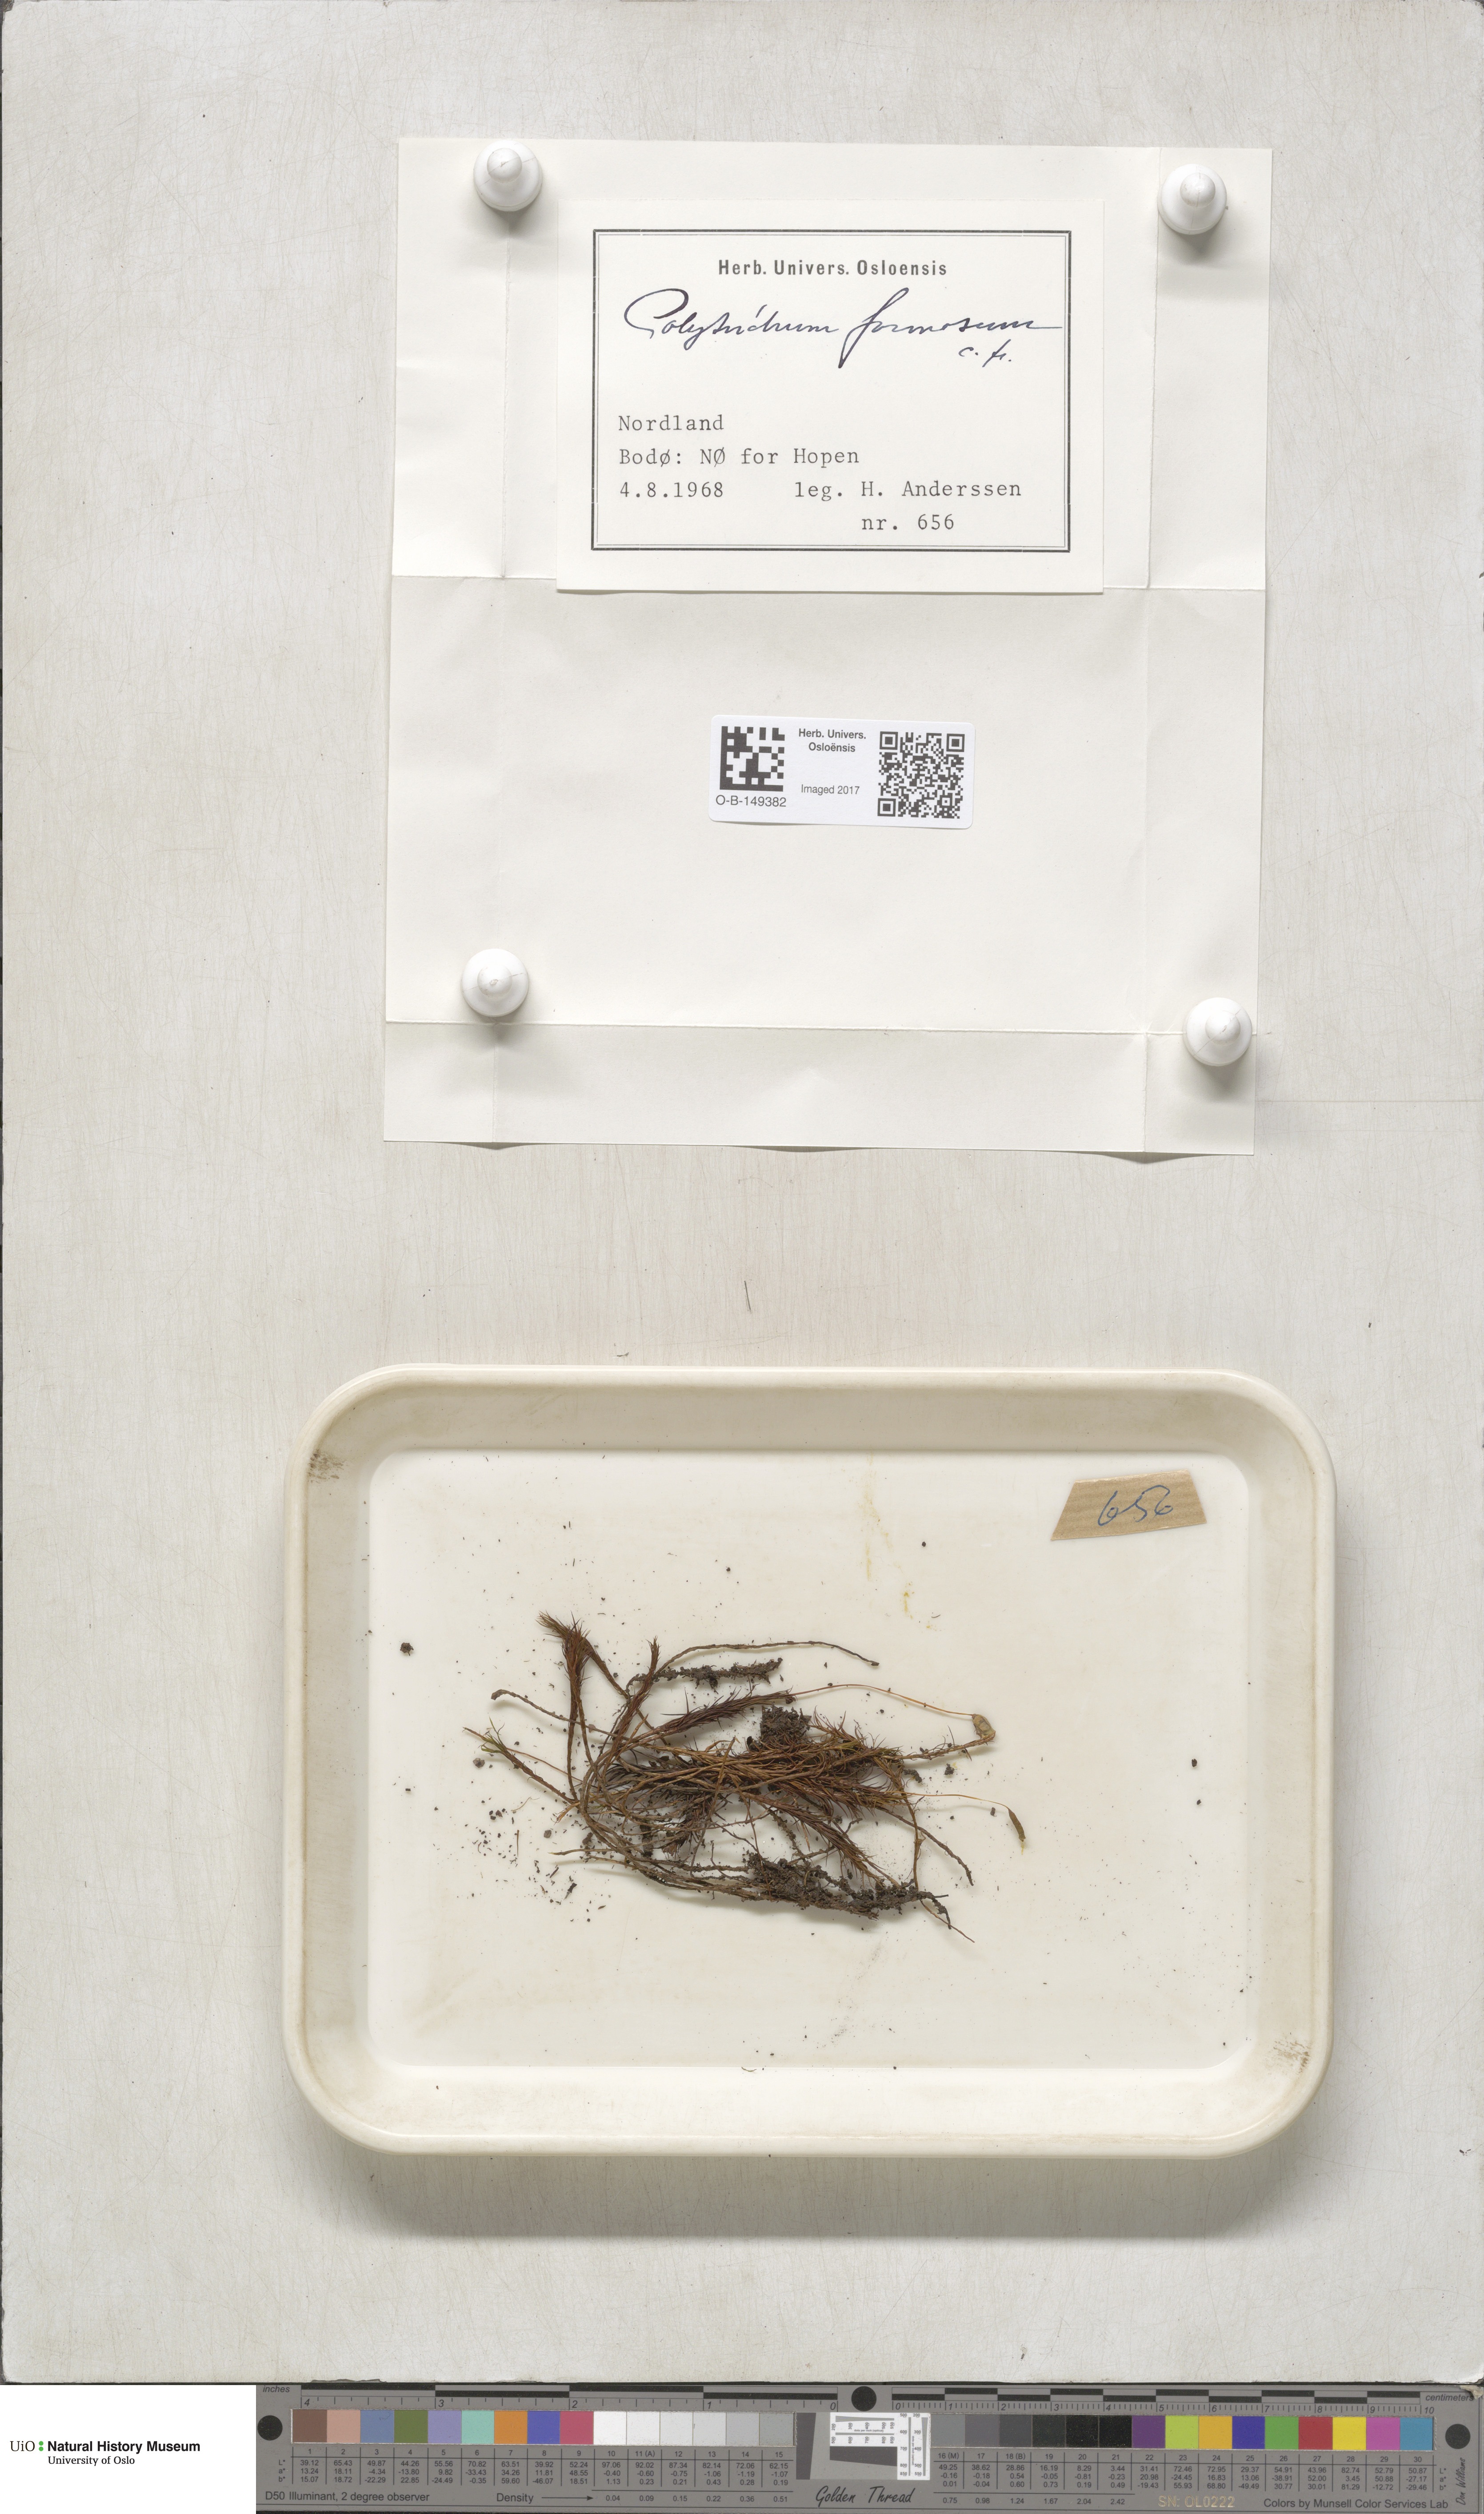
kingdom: Plantae
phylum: Bryophyta
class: Polytrichopsida
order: Polytrichales
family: Polytrichaceae
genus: Polytrichum
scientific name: Polytrichum formosum
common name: Bank haircap moss
